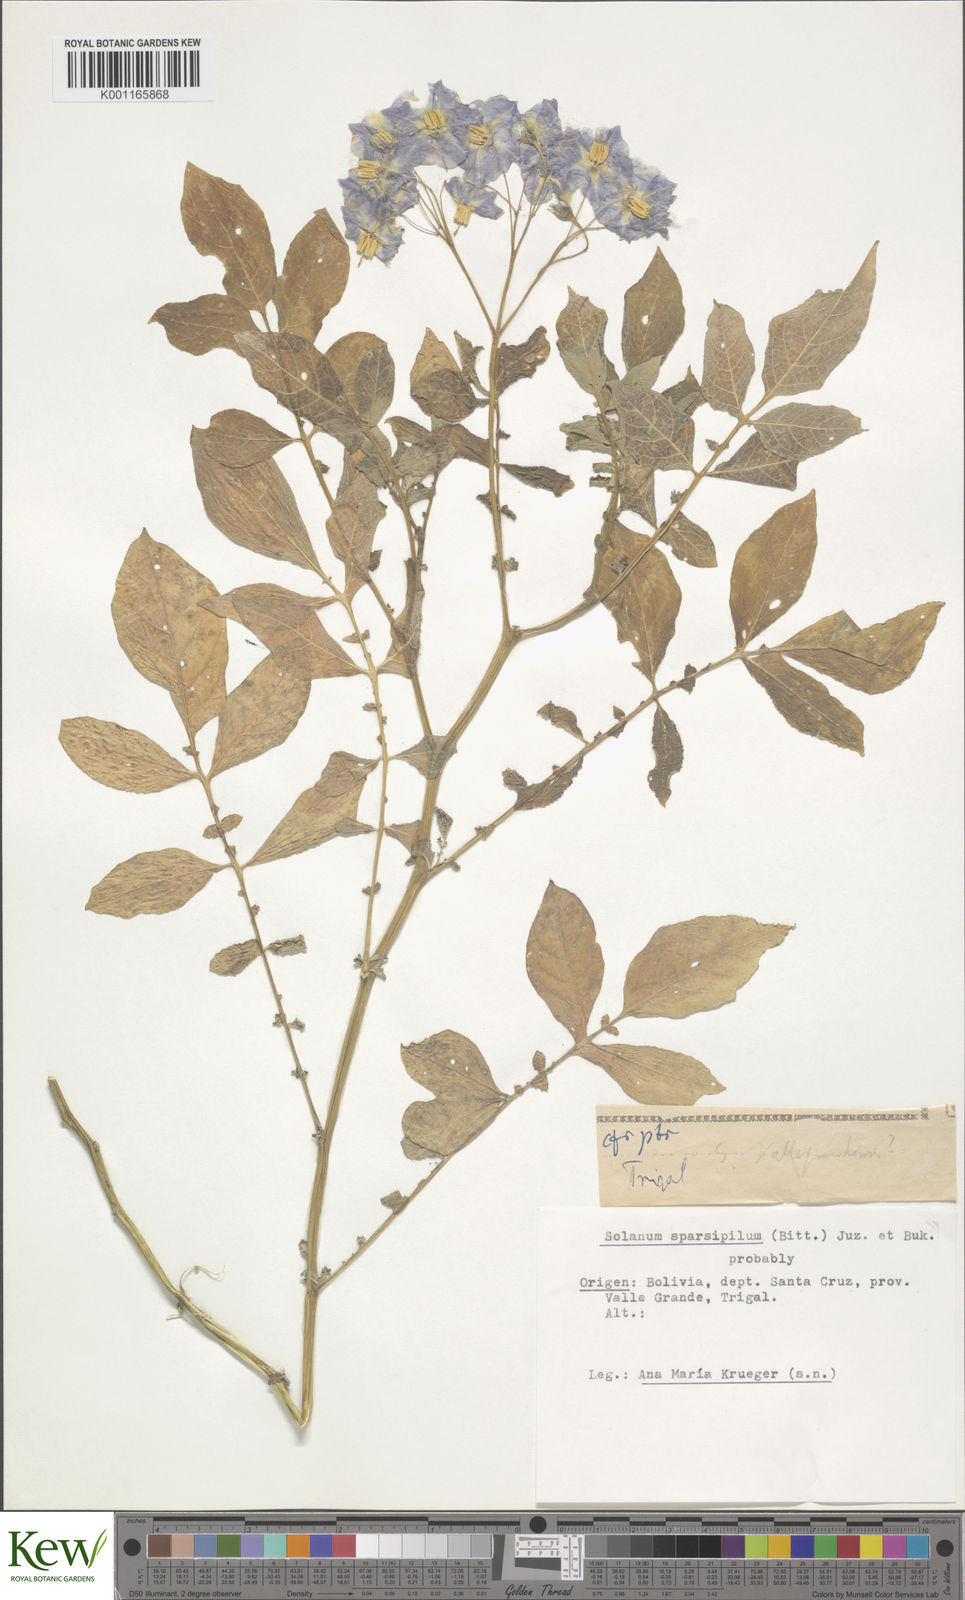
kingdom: Plantae
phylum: Tracheophyta
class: Magnoliopsida
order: Solanales
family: Solanaceae
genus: Solanum
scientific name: Solanum brevicaule
